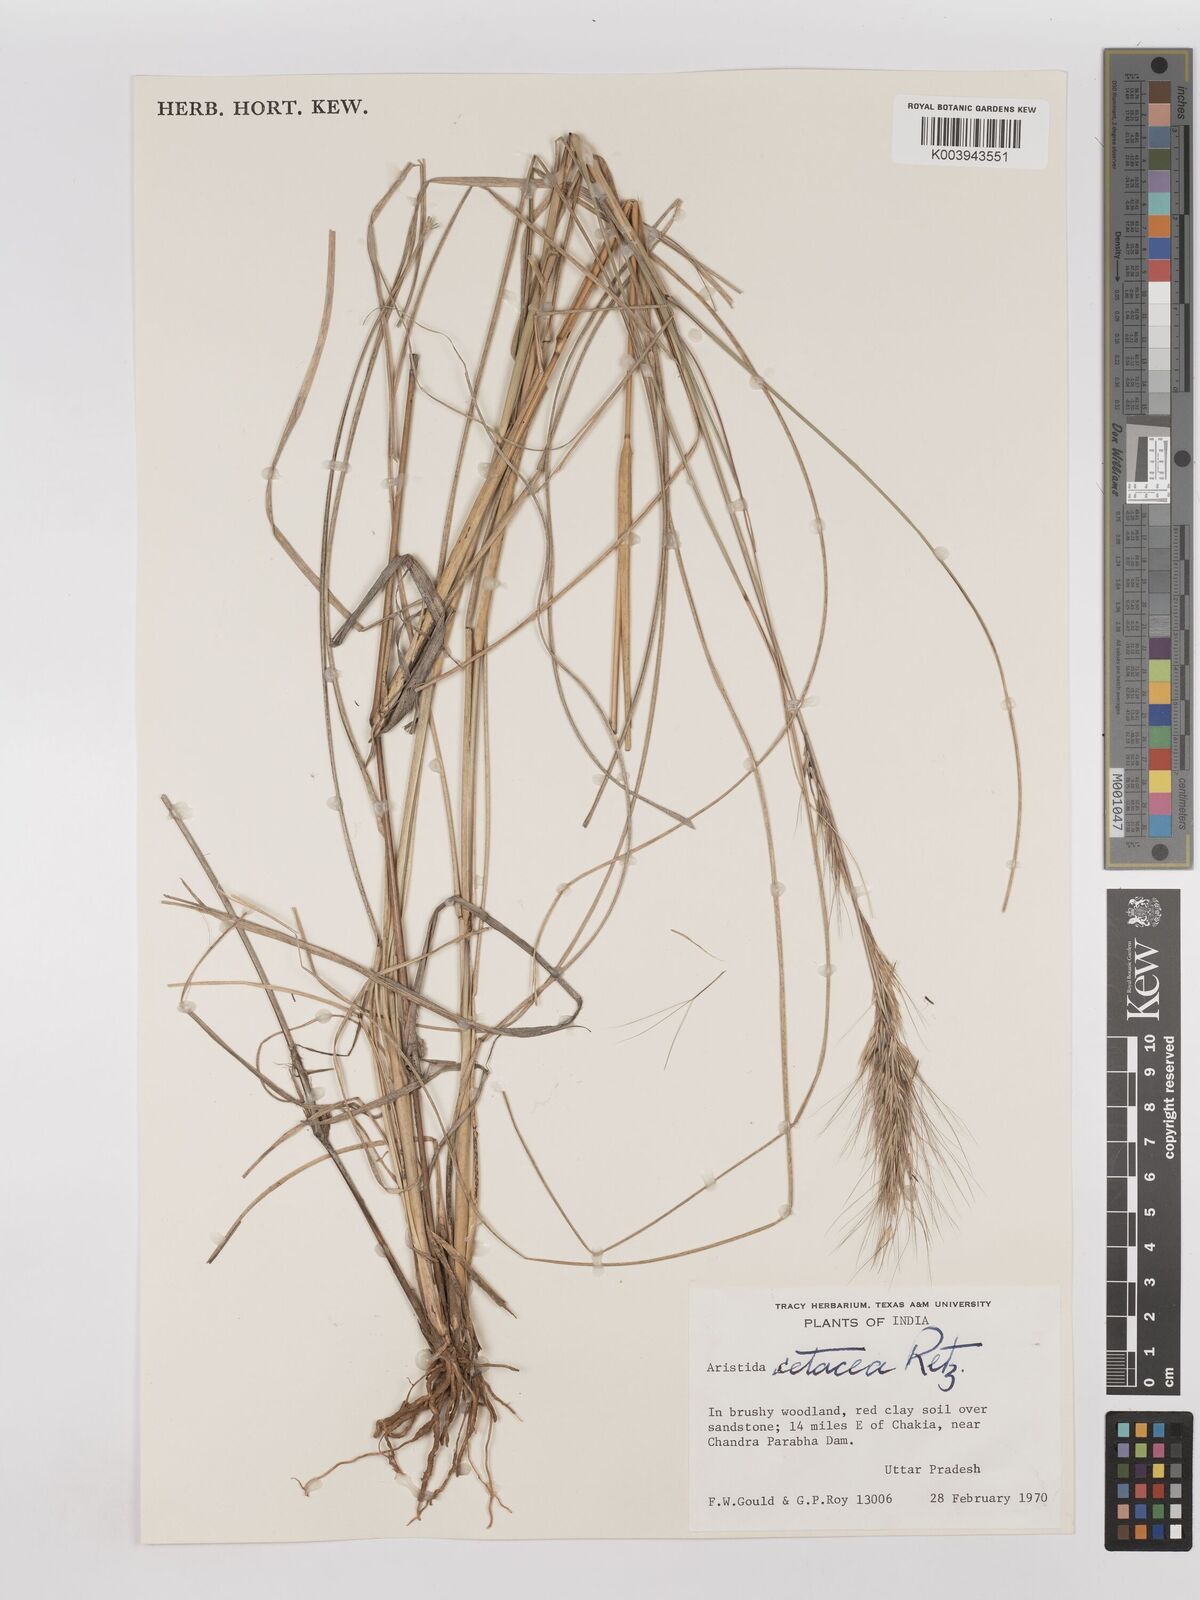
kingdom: Plantae
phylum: Tracheophyta
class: Liliopsida
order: Poales
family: Poaceae
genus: Aristida
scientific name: Aristida setacea
